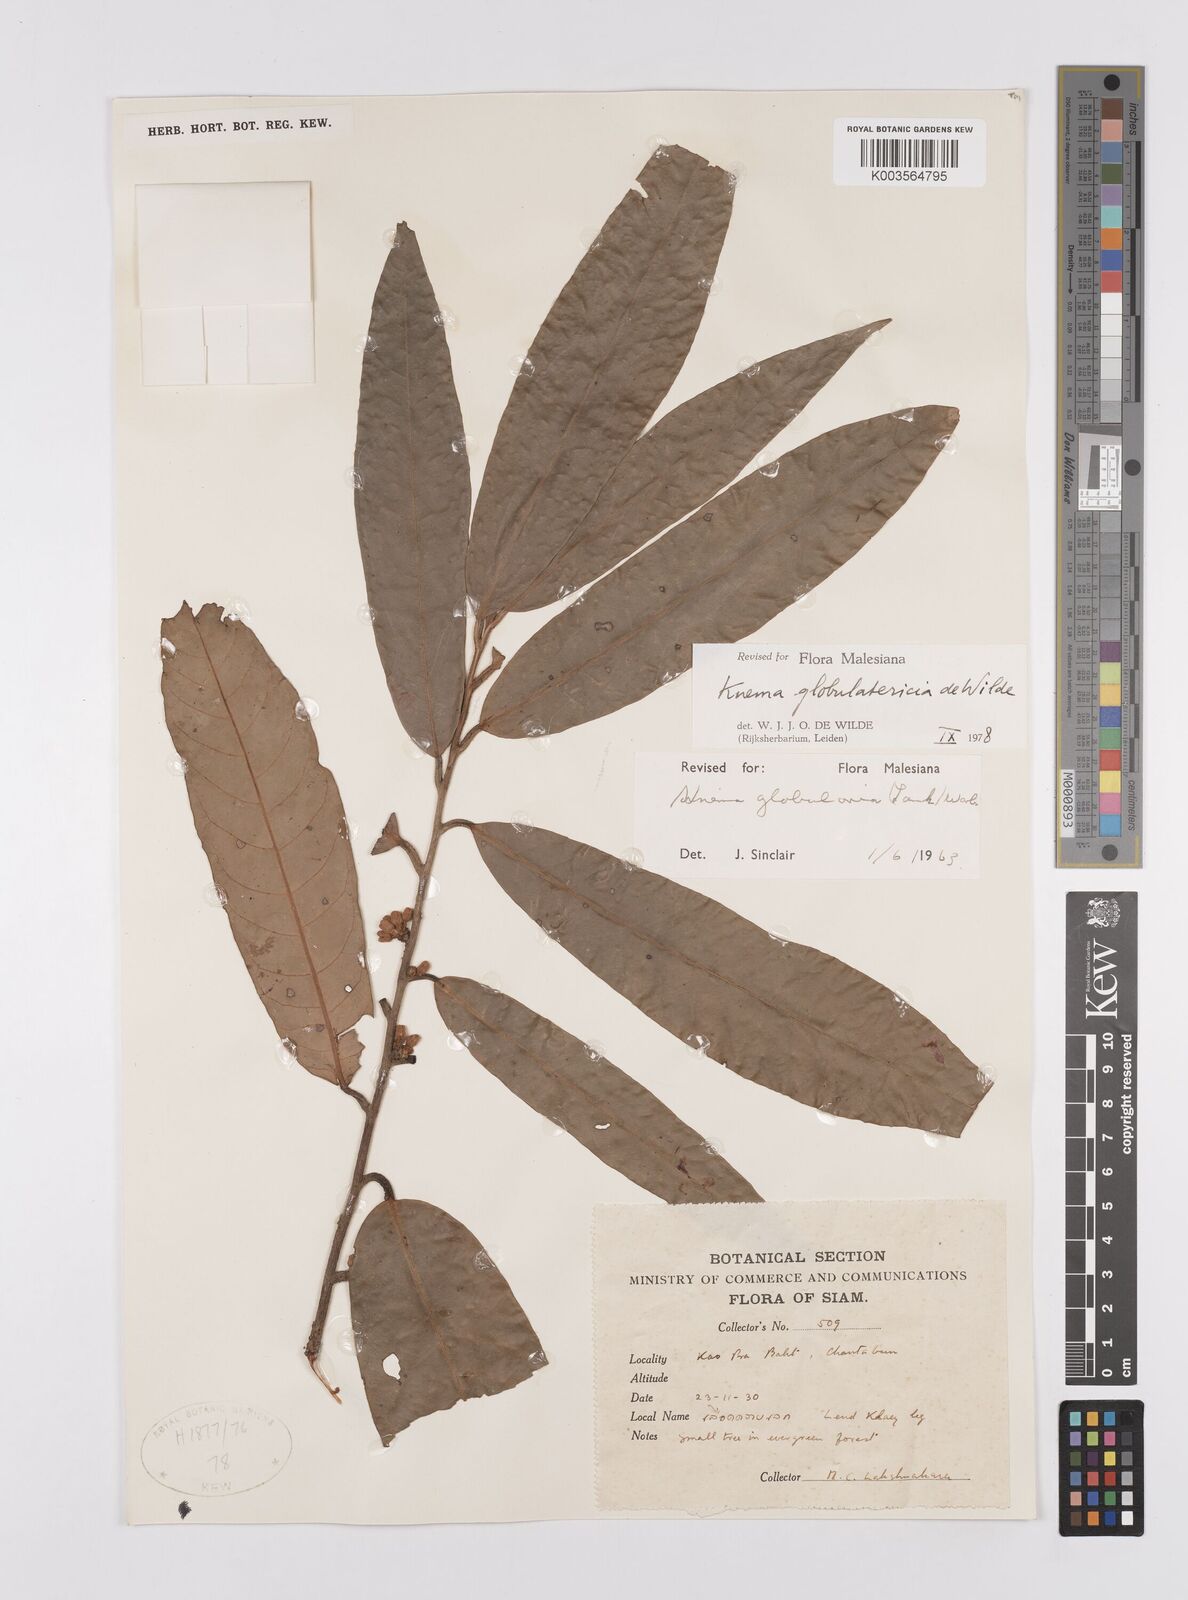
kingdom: Plantae
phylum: Tracheophyta
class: Magnoliopsida
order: Magnoliales
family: Myristicaceae
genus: Knema
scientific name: Knema globulatericia
